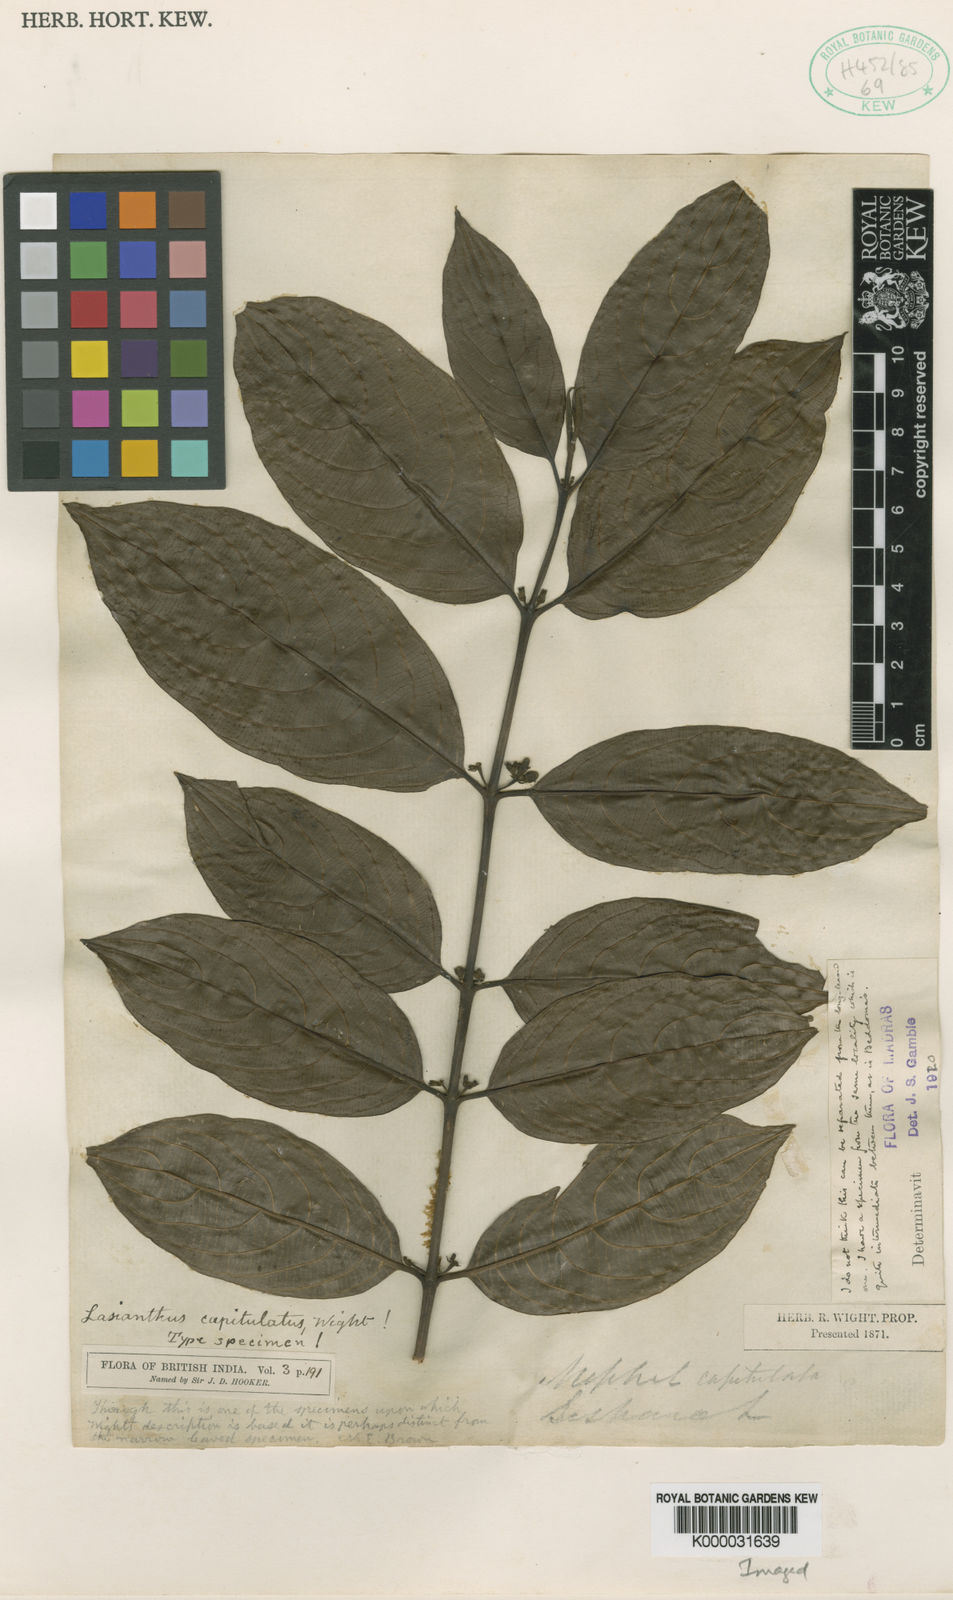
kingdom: Plantae
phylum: Tracheophyta
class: Magnoliopsida
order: Gentianales
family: Rubiaceae
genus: Lasianthus
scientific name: Lasianthus capitulatus
